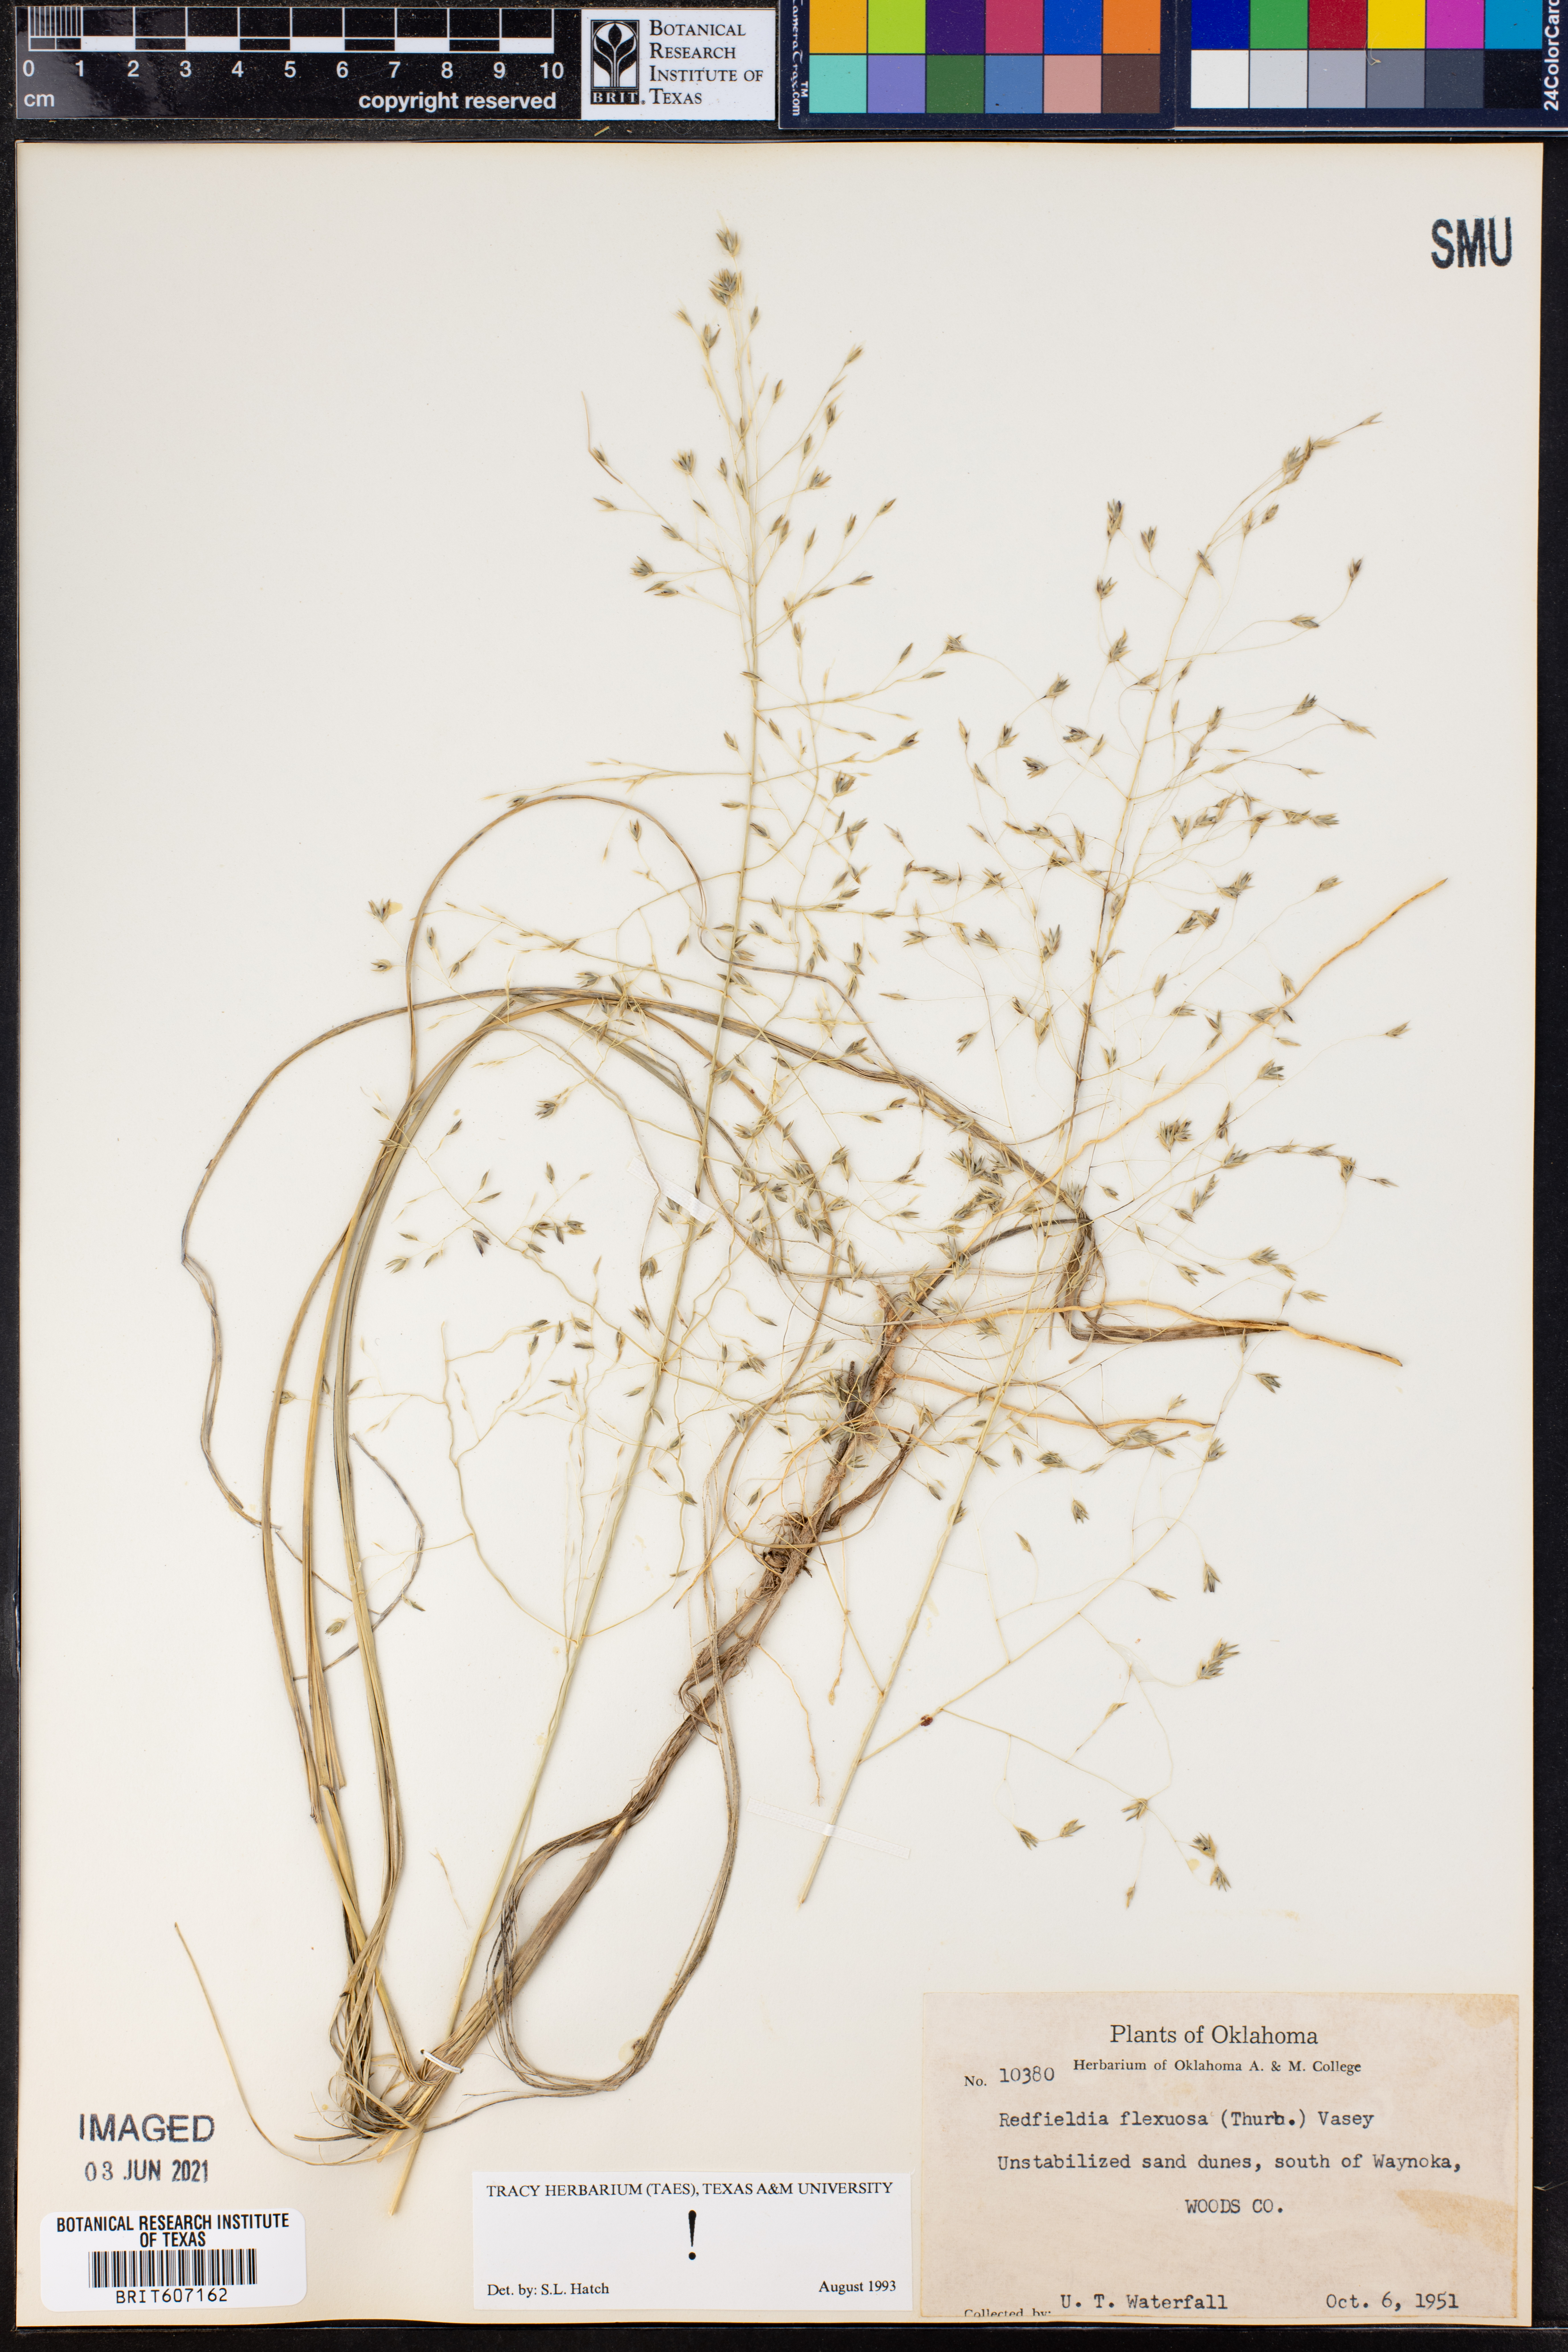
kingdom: Plantae
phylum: Tracheophyta
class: Liliopsida
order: Poales
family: Poaceae
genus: Muhlenbergia
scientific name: Muhlenbergia multiflora
